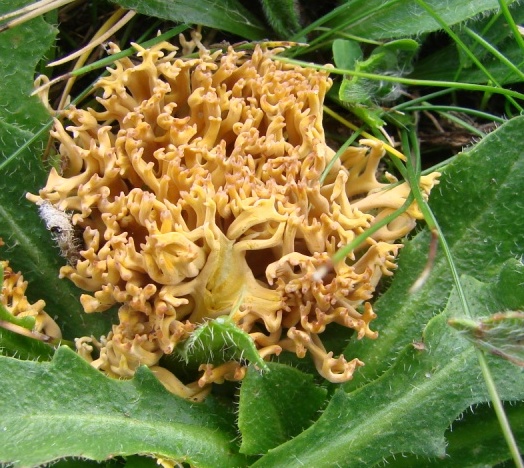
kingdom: Fungi
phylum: Basidiomycota
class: Agaricomycetes
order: Agaricales
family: Clavariaceae
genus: Clavulinopsis
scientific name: Clavulinopsis corniculata
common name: eng-køllesvamp
